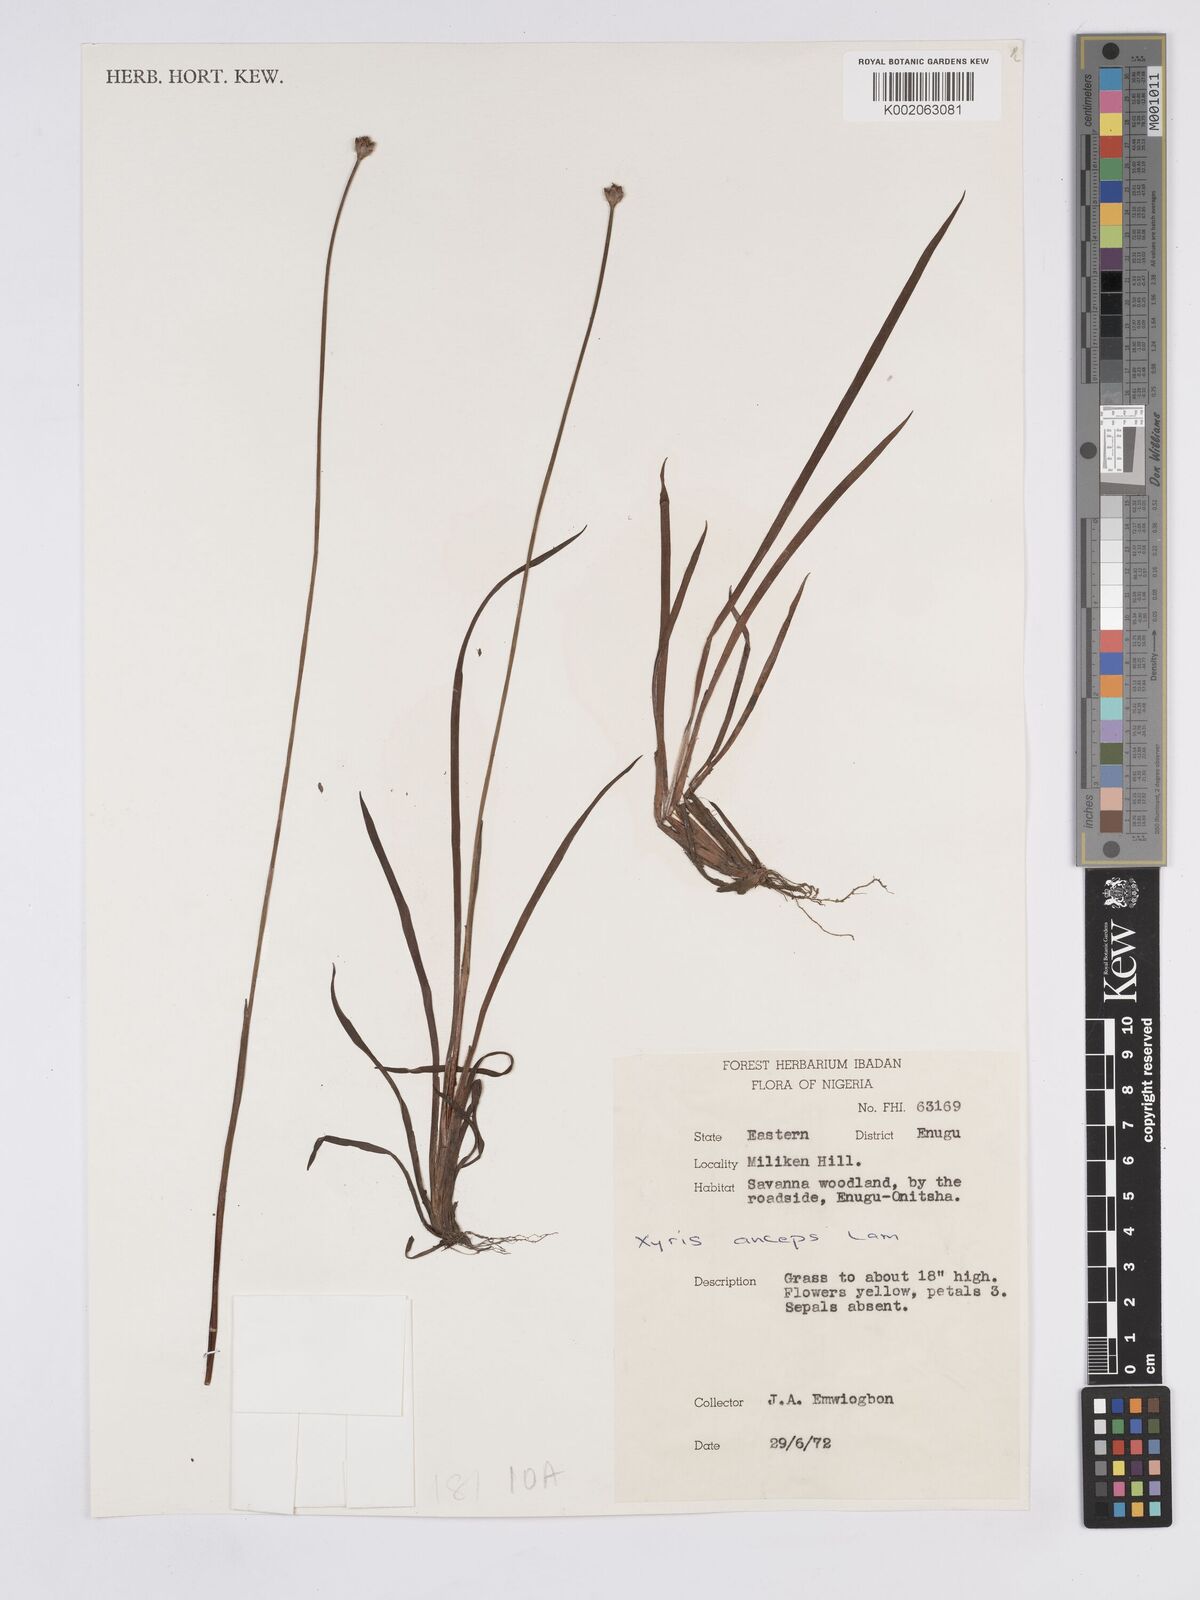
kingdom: Plantae
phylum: Tracheophyta
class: Liliopsida
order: Poales
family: Xyridaceae
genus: Xyris
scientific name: Xyris anceps
